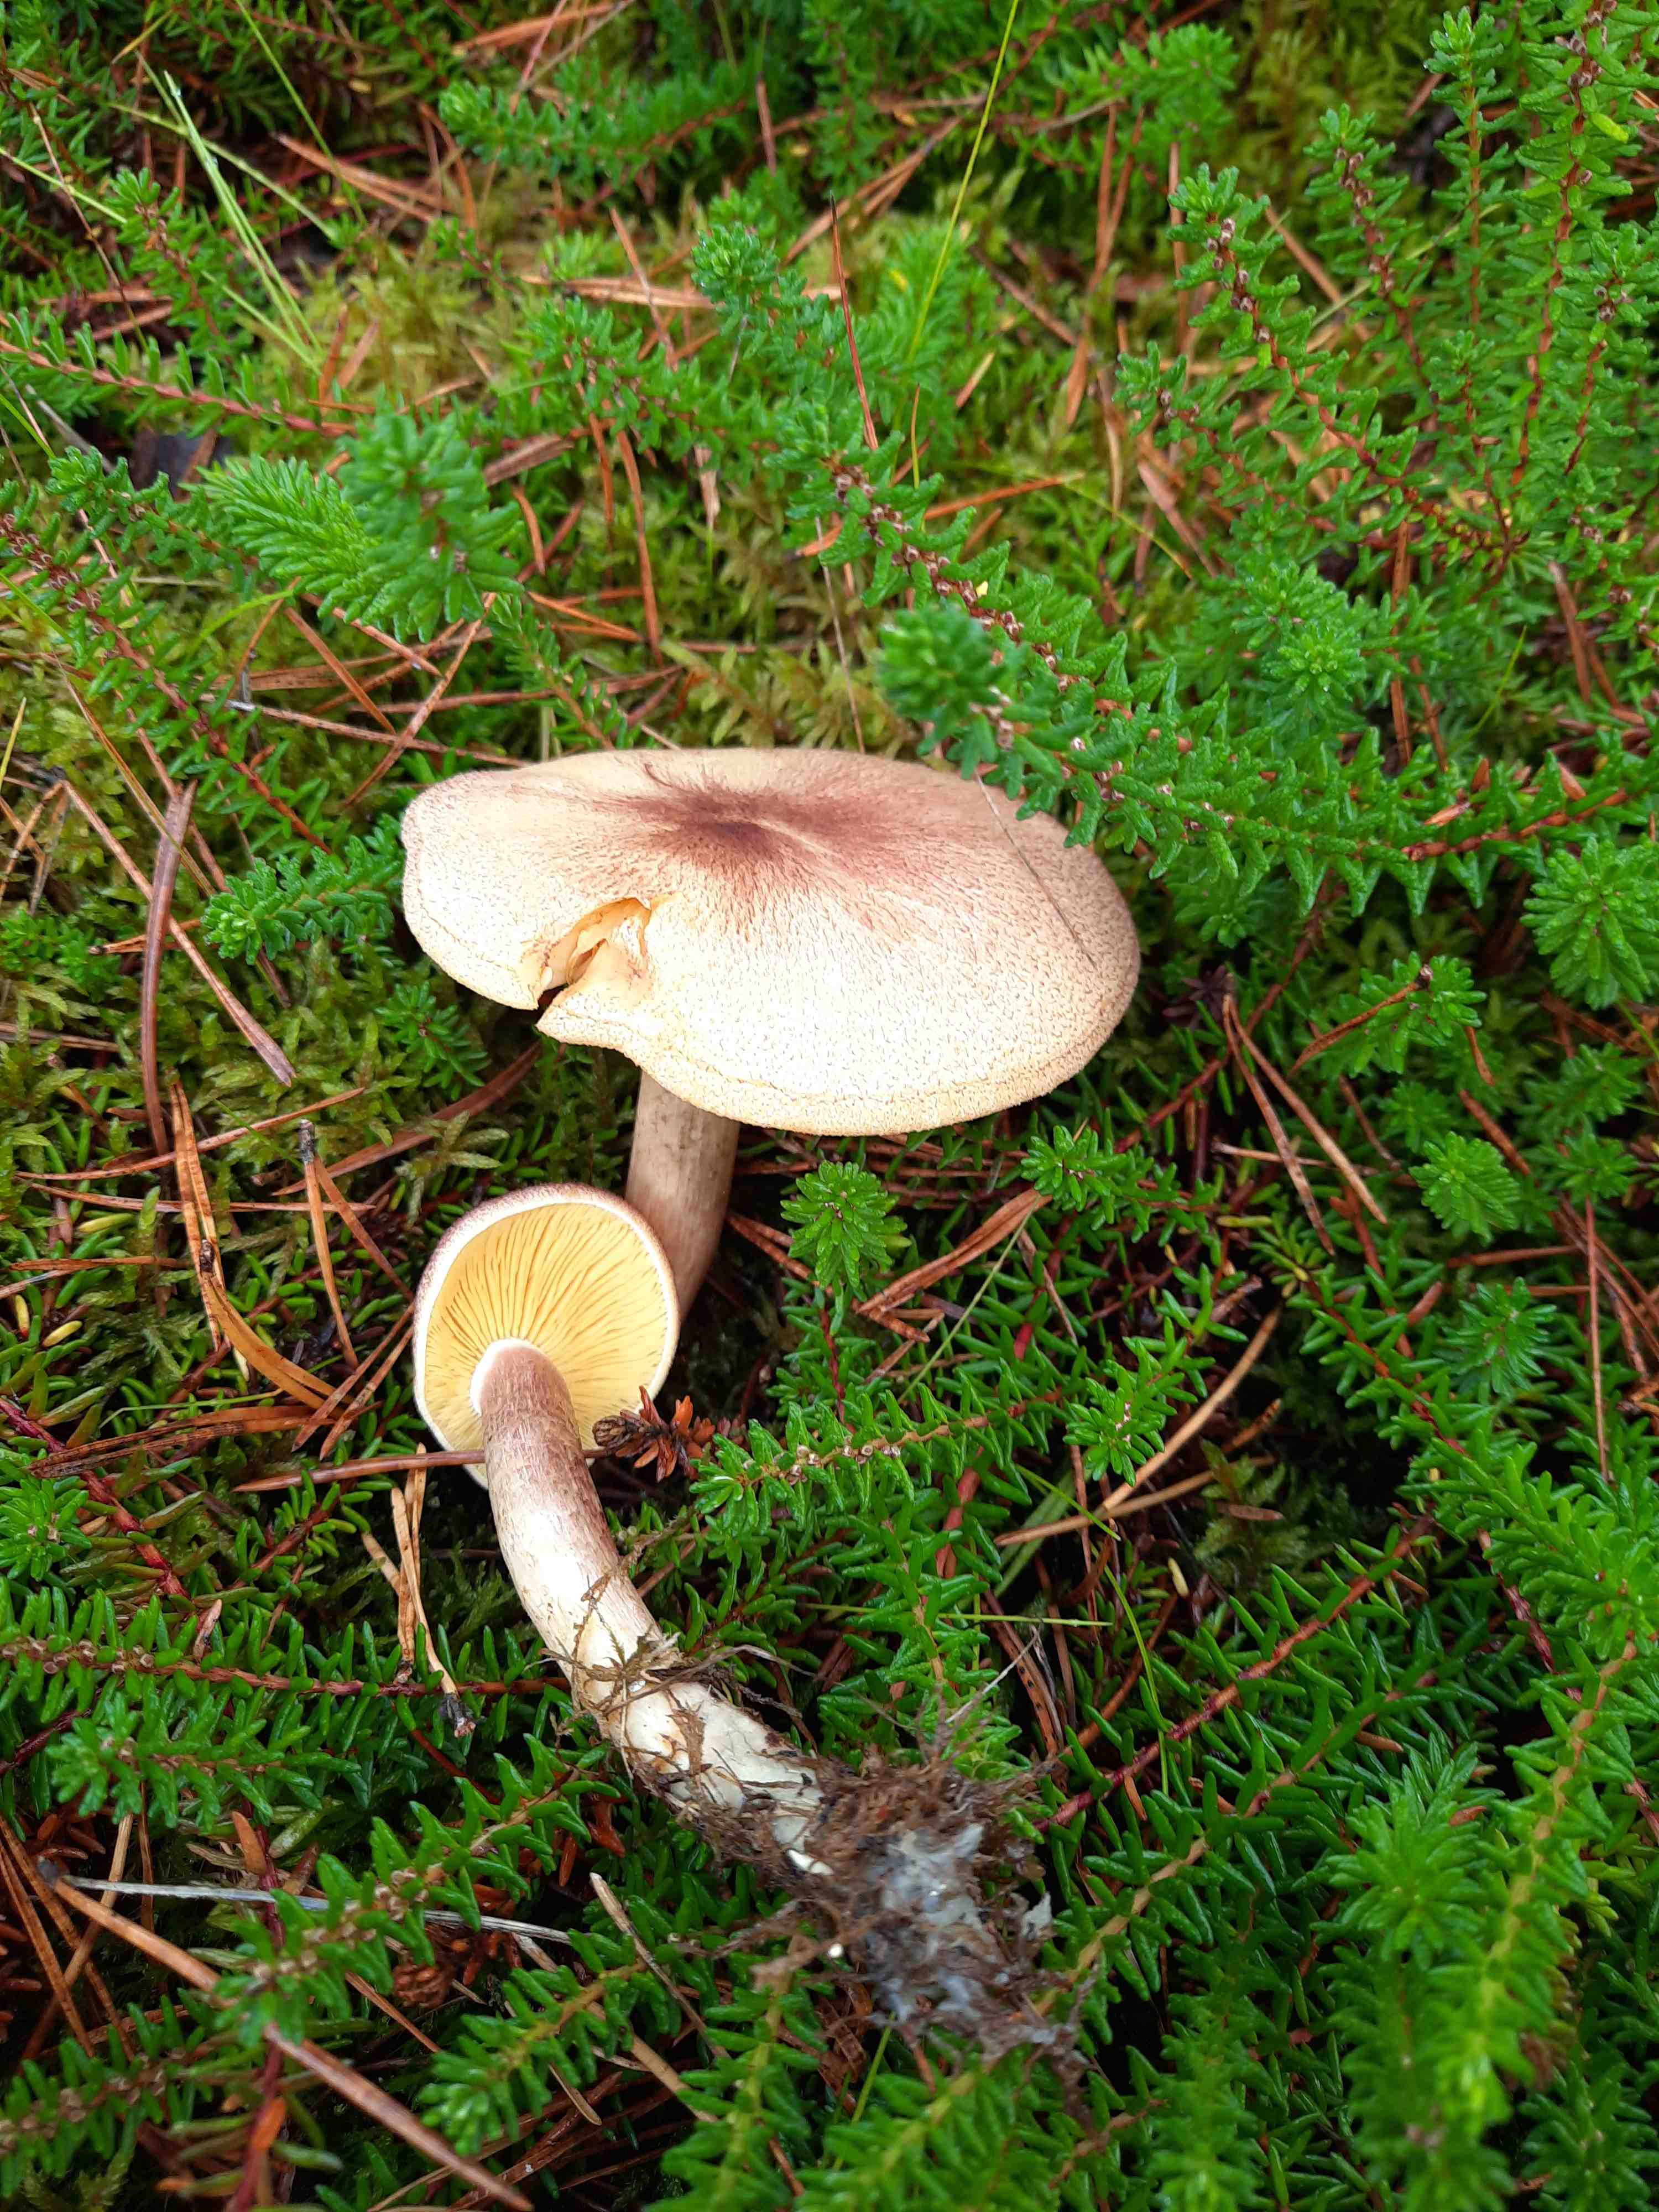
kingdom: Fungi
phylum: Basidiomycota
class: Agaricomycetes
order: Agaricales
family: Tricholomataceae
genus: Tricholomopsis
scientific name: Tricholomopsis rutilans
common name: purpur-væbnerhat
